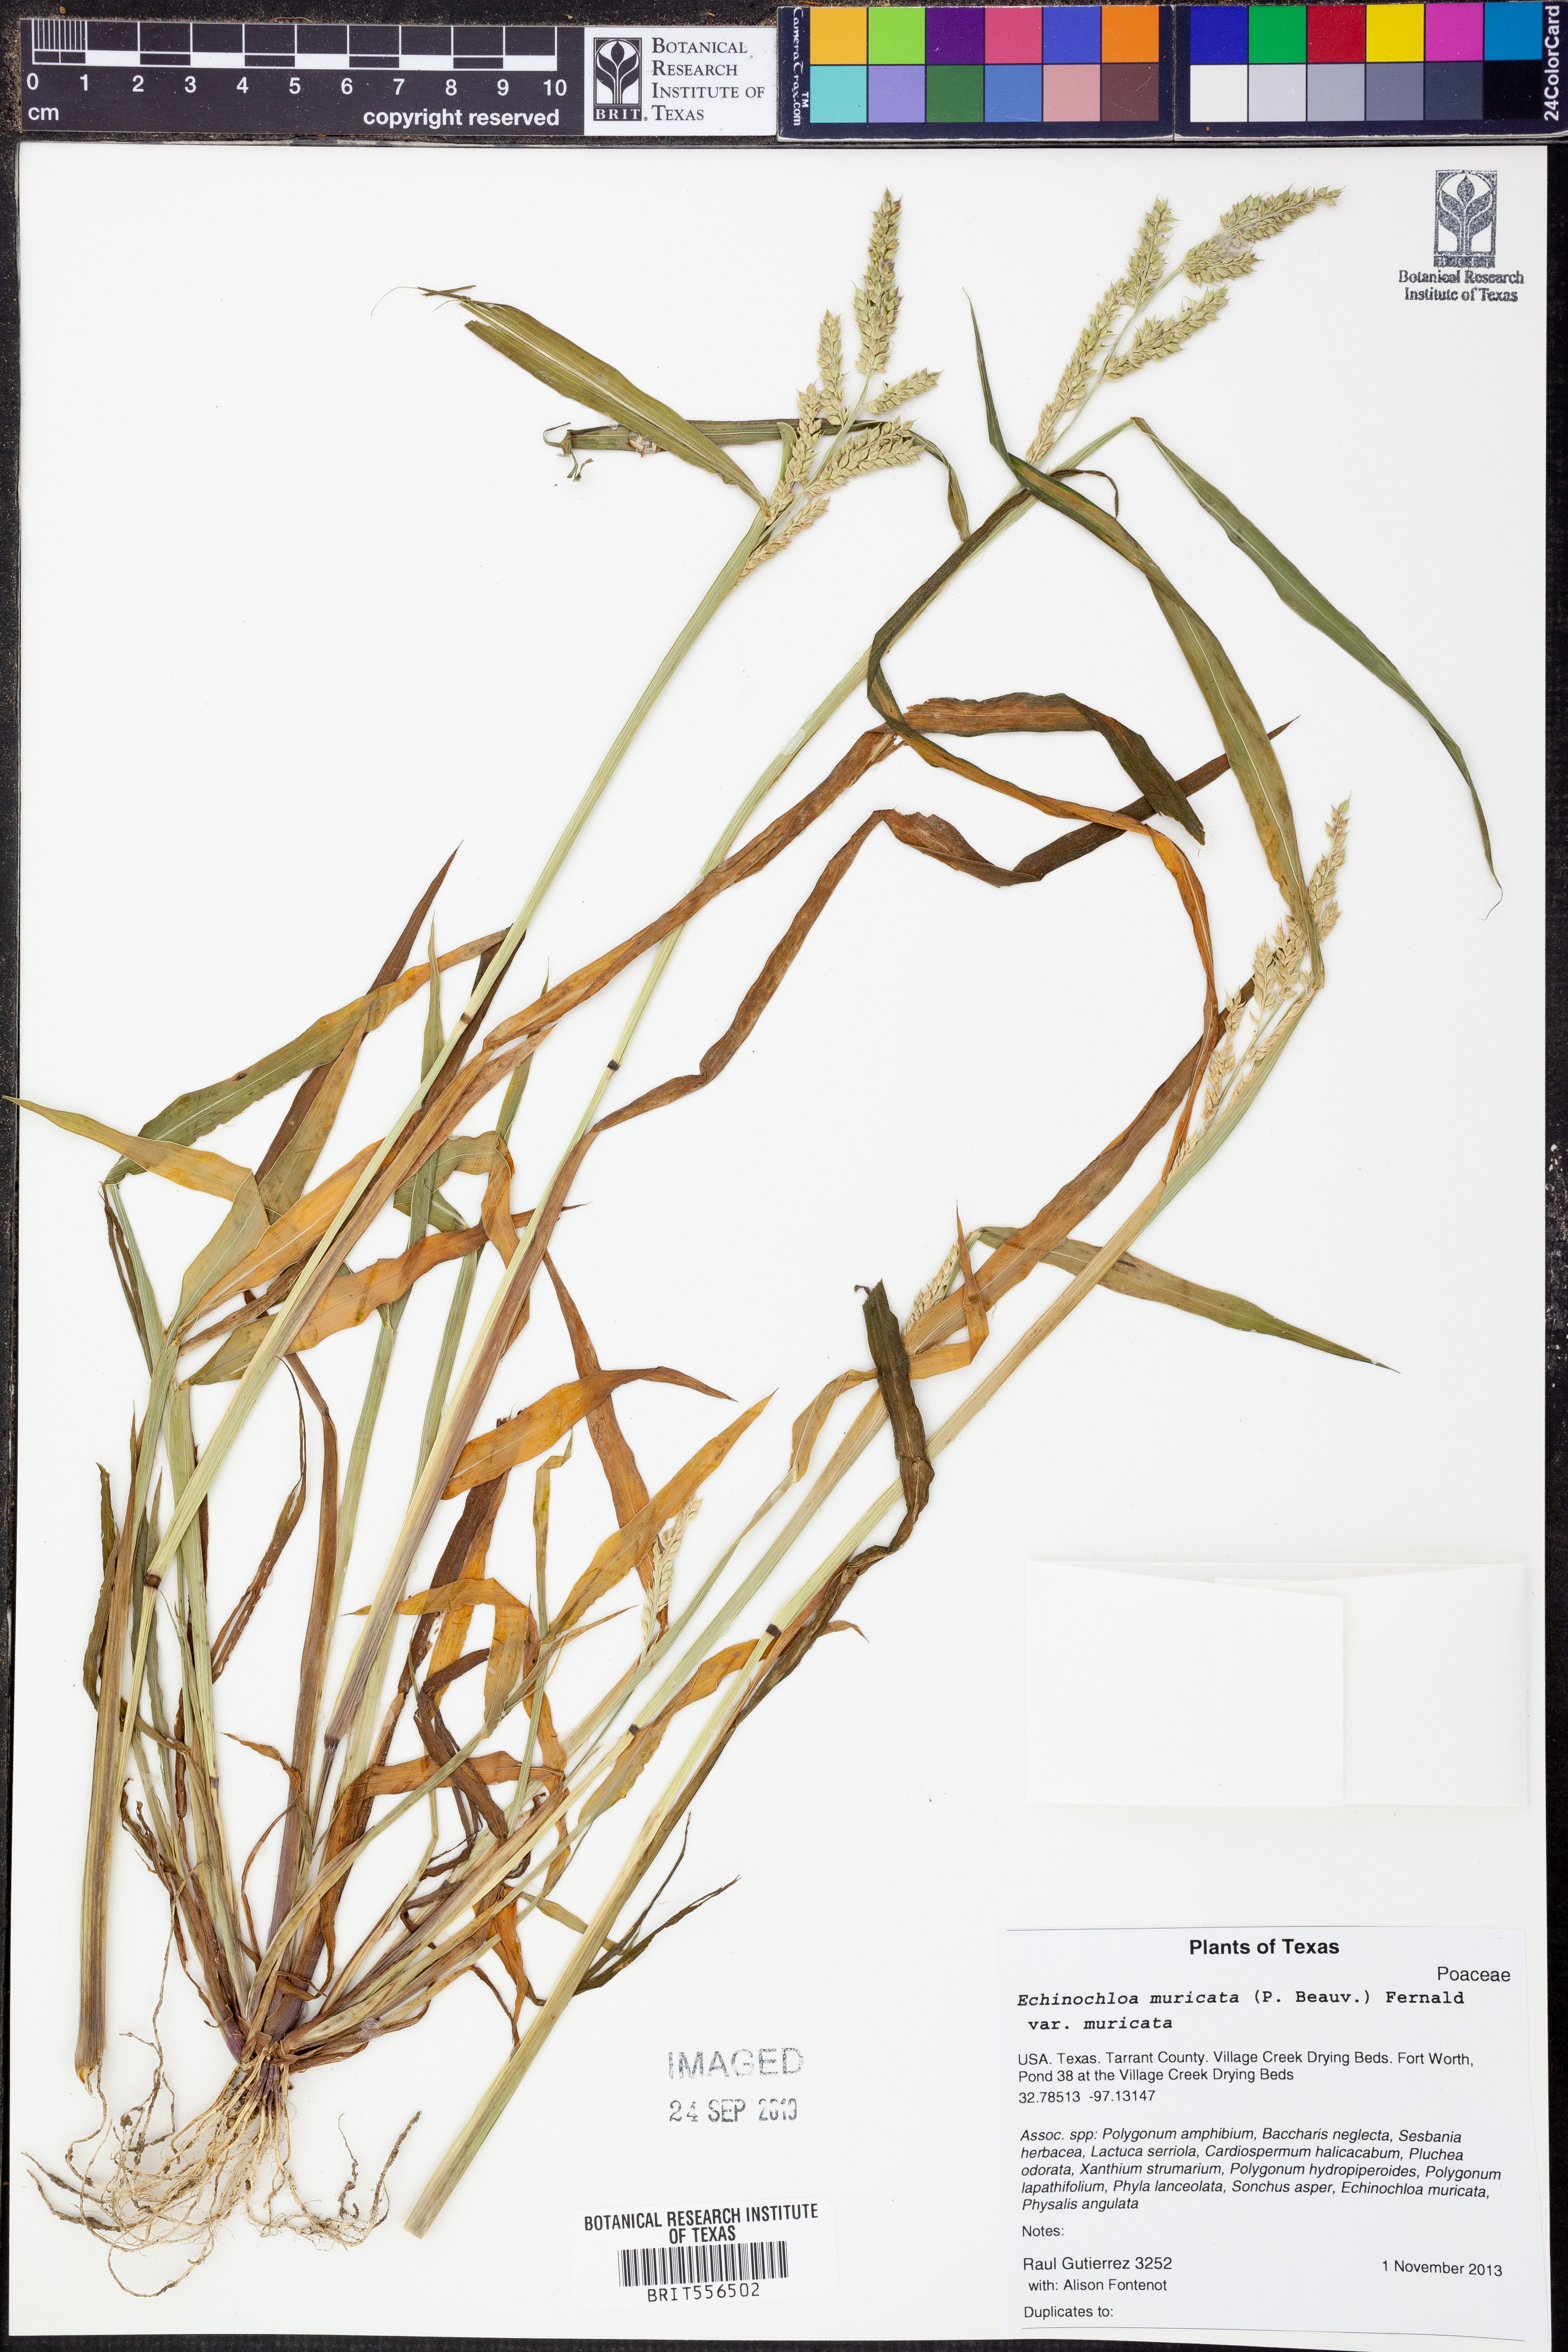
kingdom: Plantae
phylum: Tracheophyta
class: Liliopsida
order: Poales
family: Poaceae
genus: Echinochloa
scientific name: Echinochloa muricata
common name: American barnyard grass
